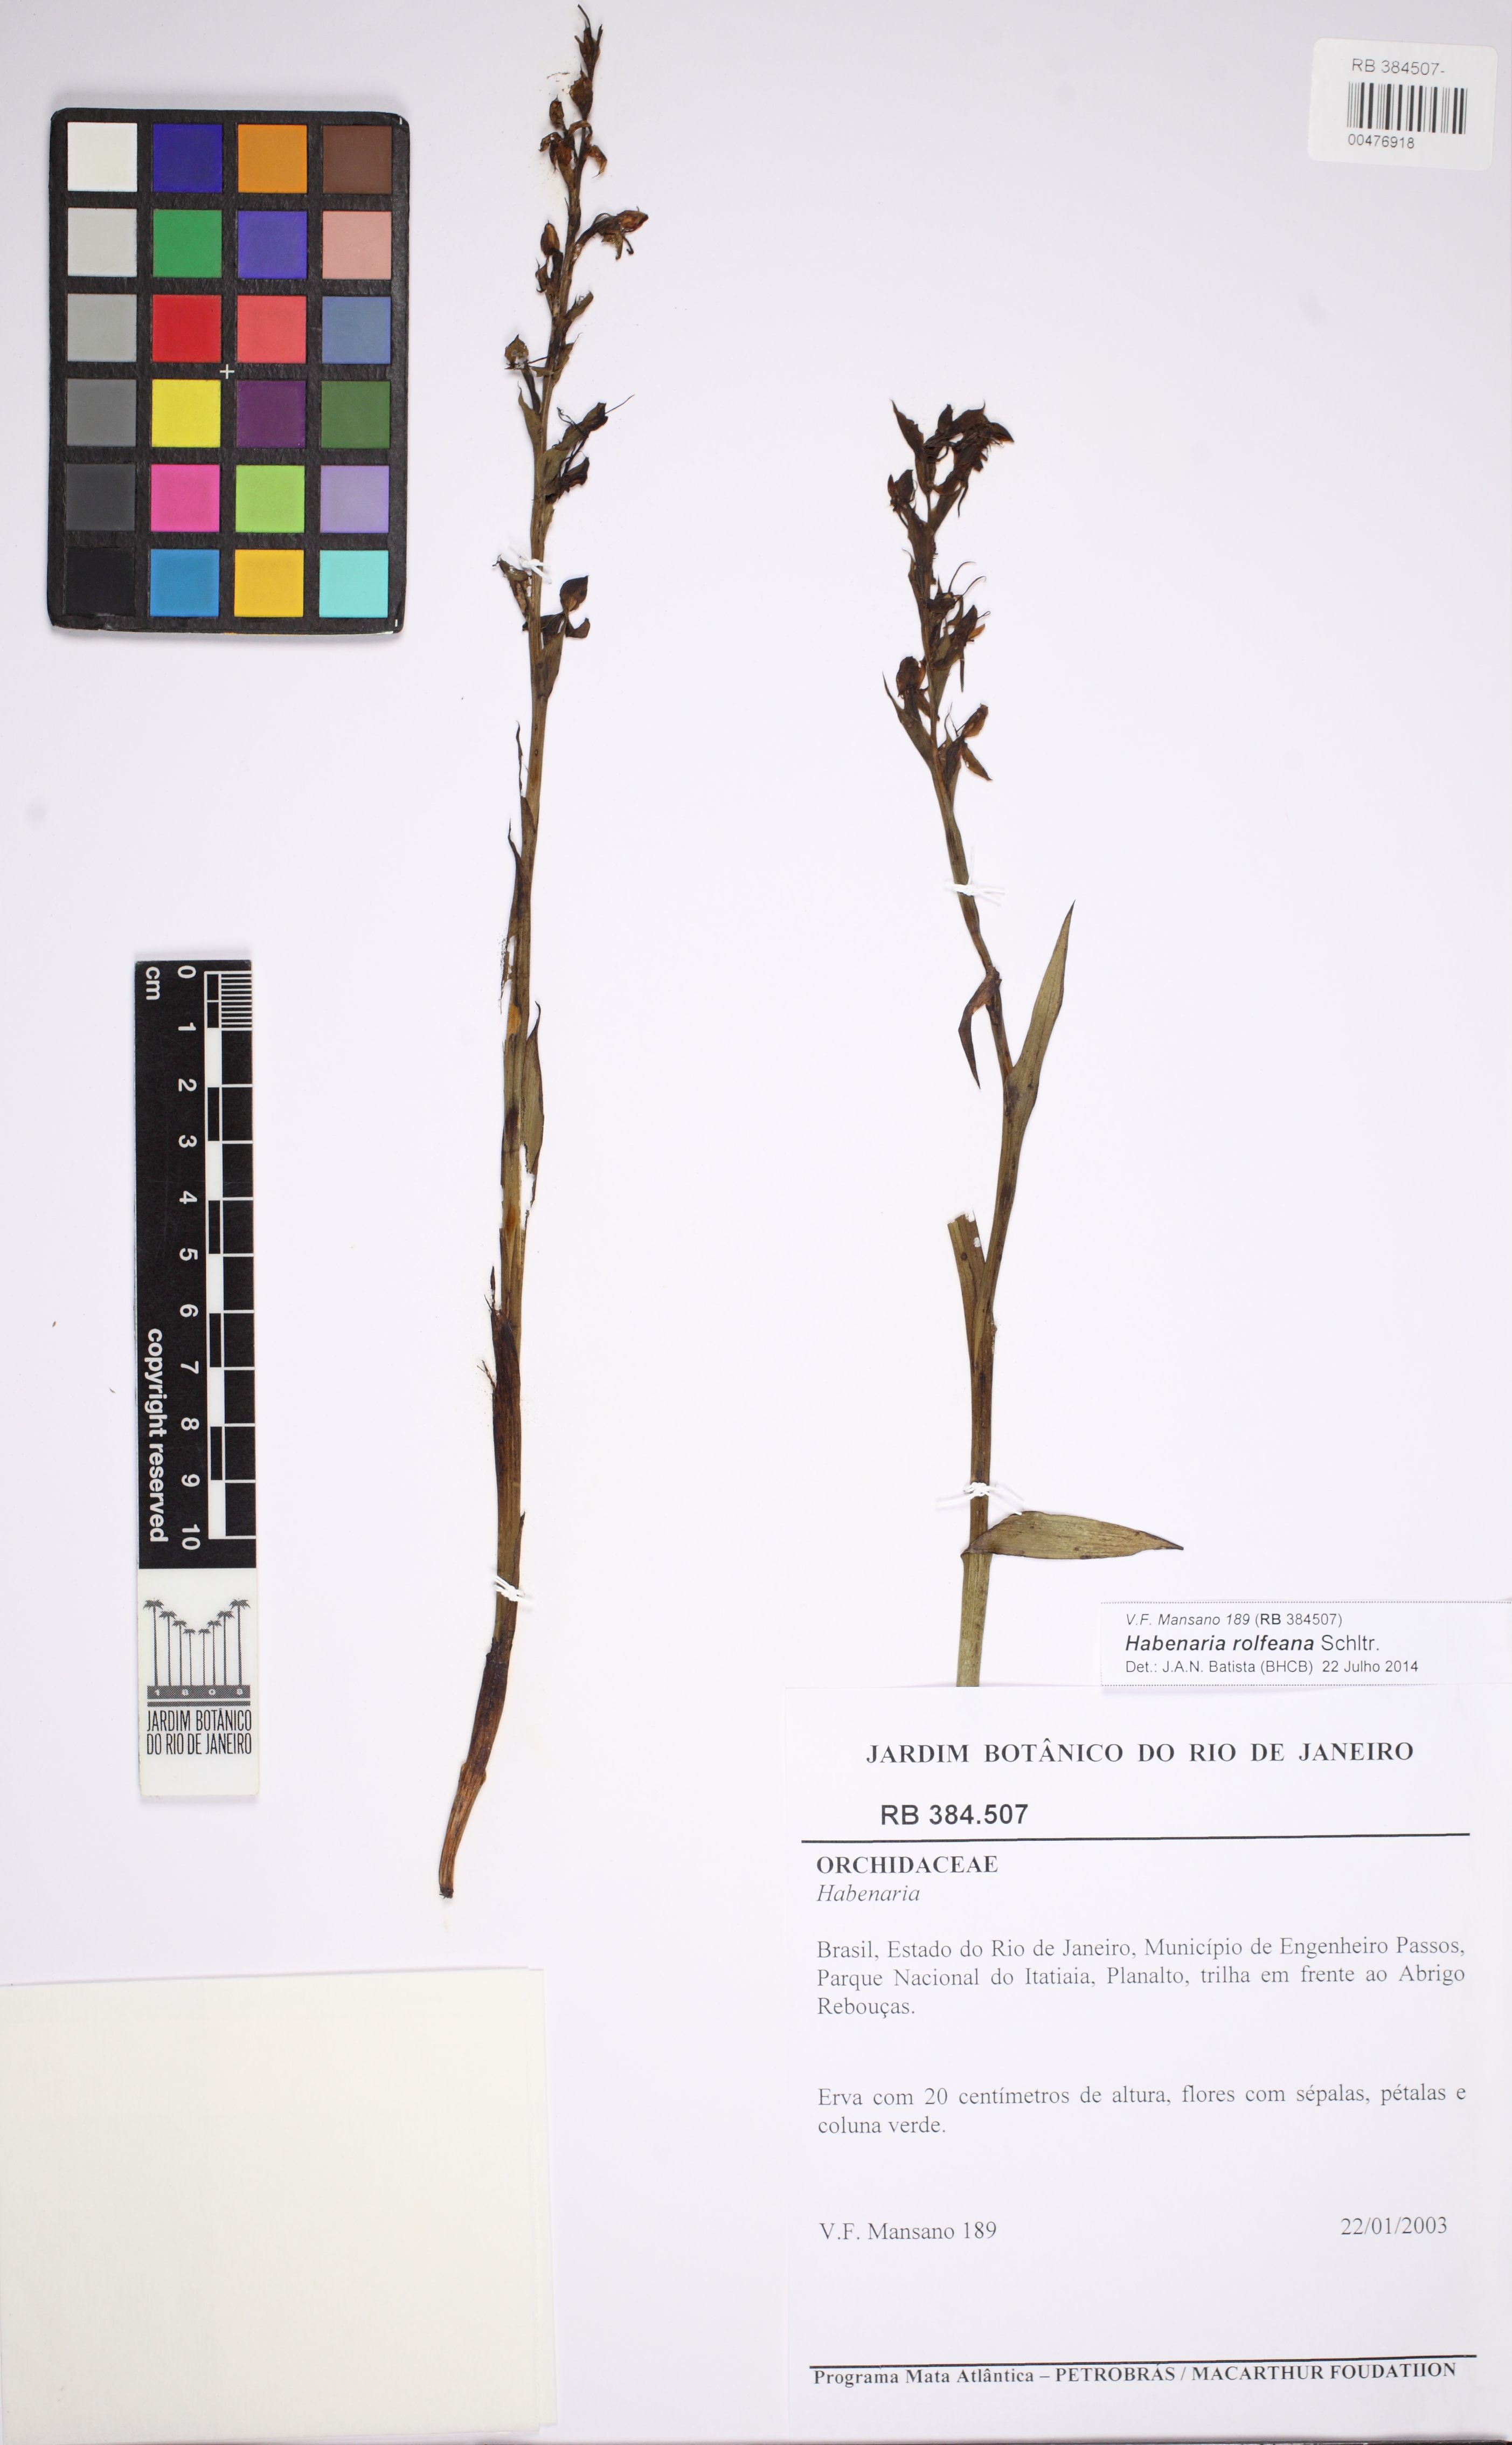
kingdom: Plantae
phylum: Tracheophyta
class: Liliopsida
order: Asparagales
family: Orchidaceae
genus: Habenaria
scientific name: Habenaria rolfeana
